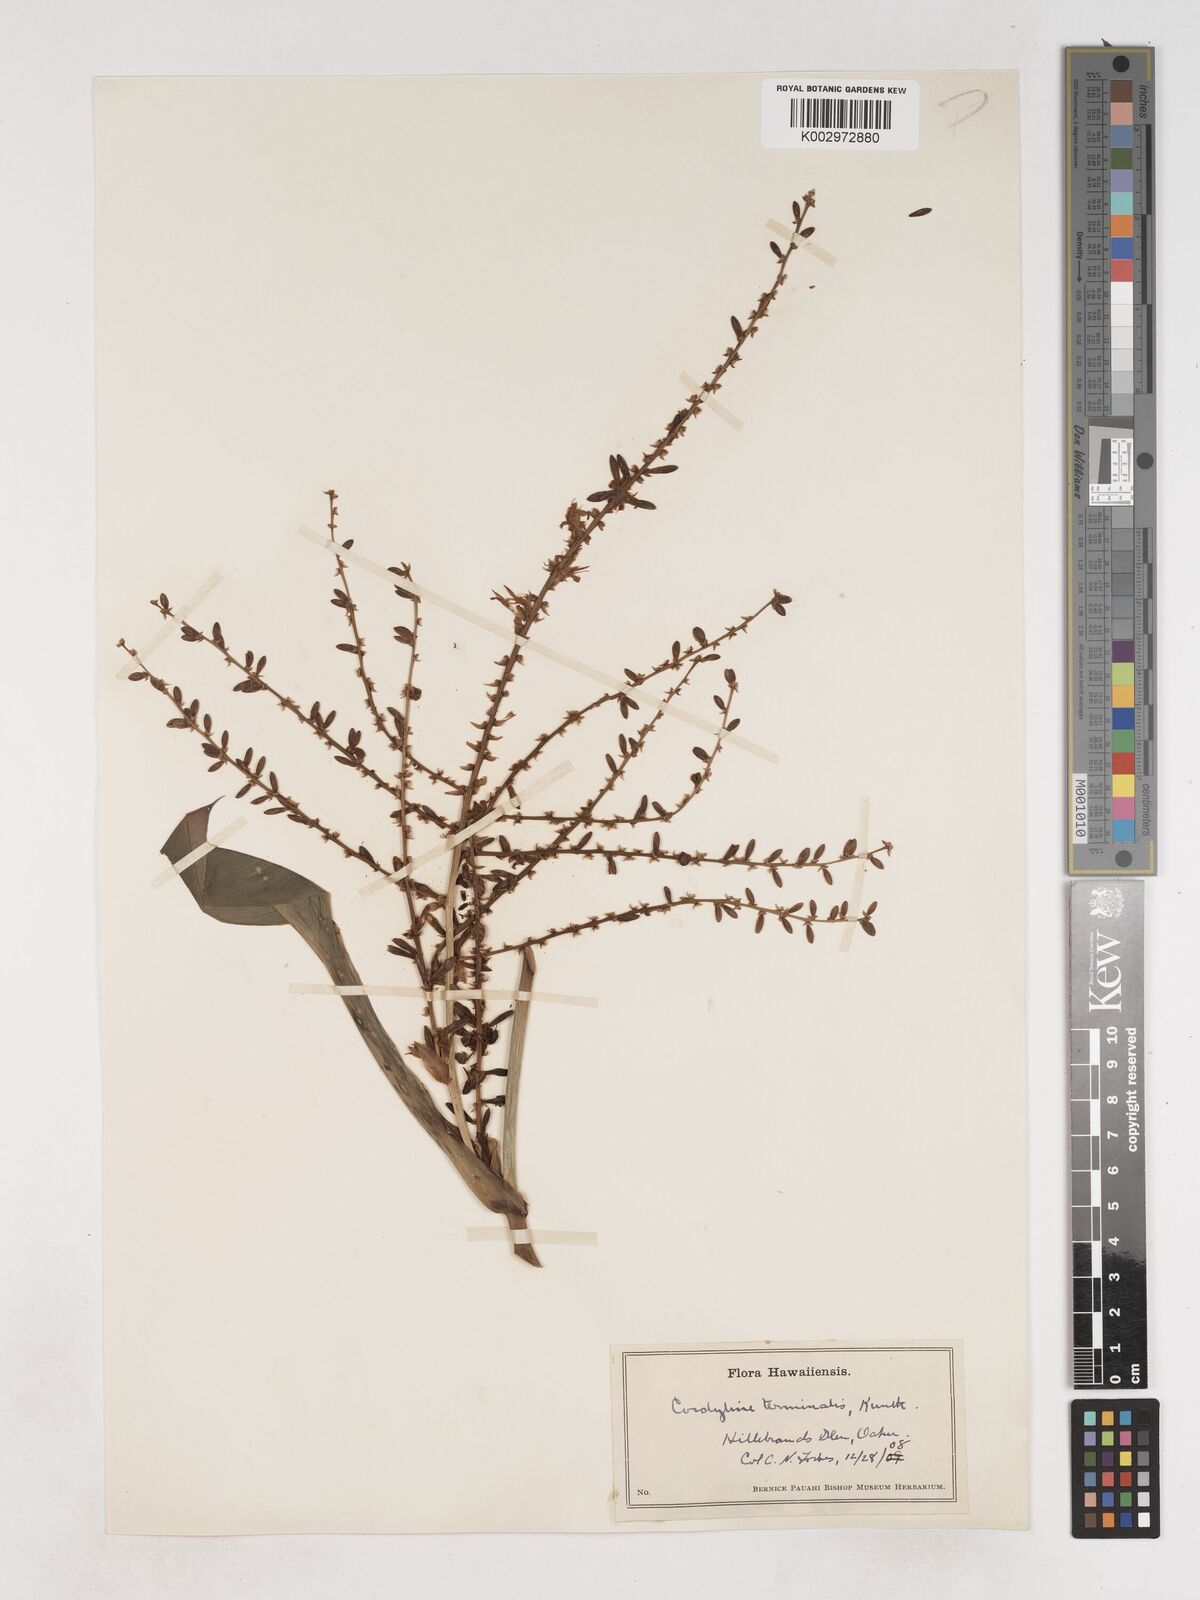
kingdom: Plantae
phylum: Tracheophyta
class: Liliopsida
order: Asparagales
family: Asparagaceae
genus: Cordyline
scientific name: Cordyline fruticosa
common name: Good-luck-plant
